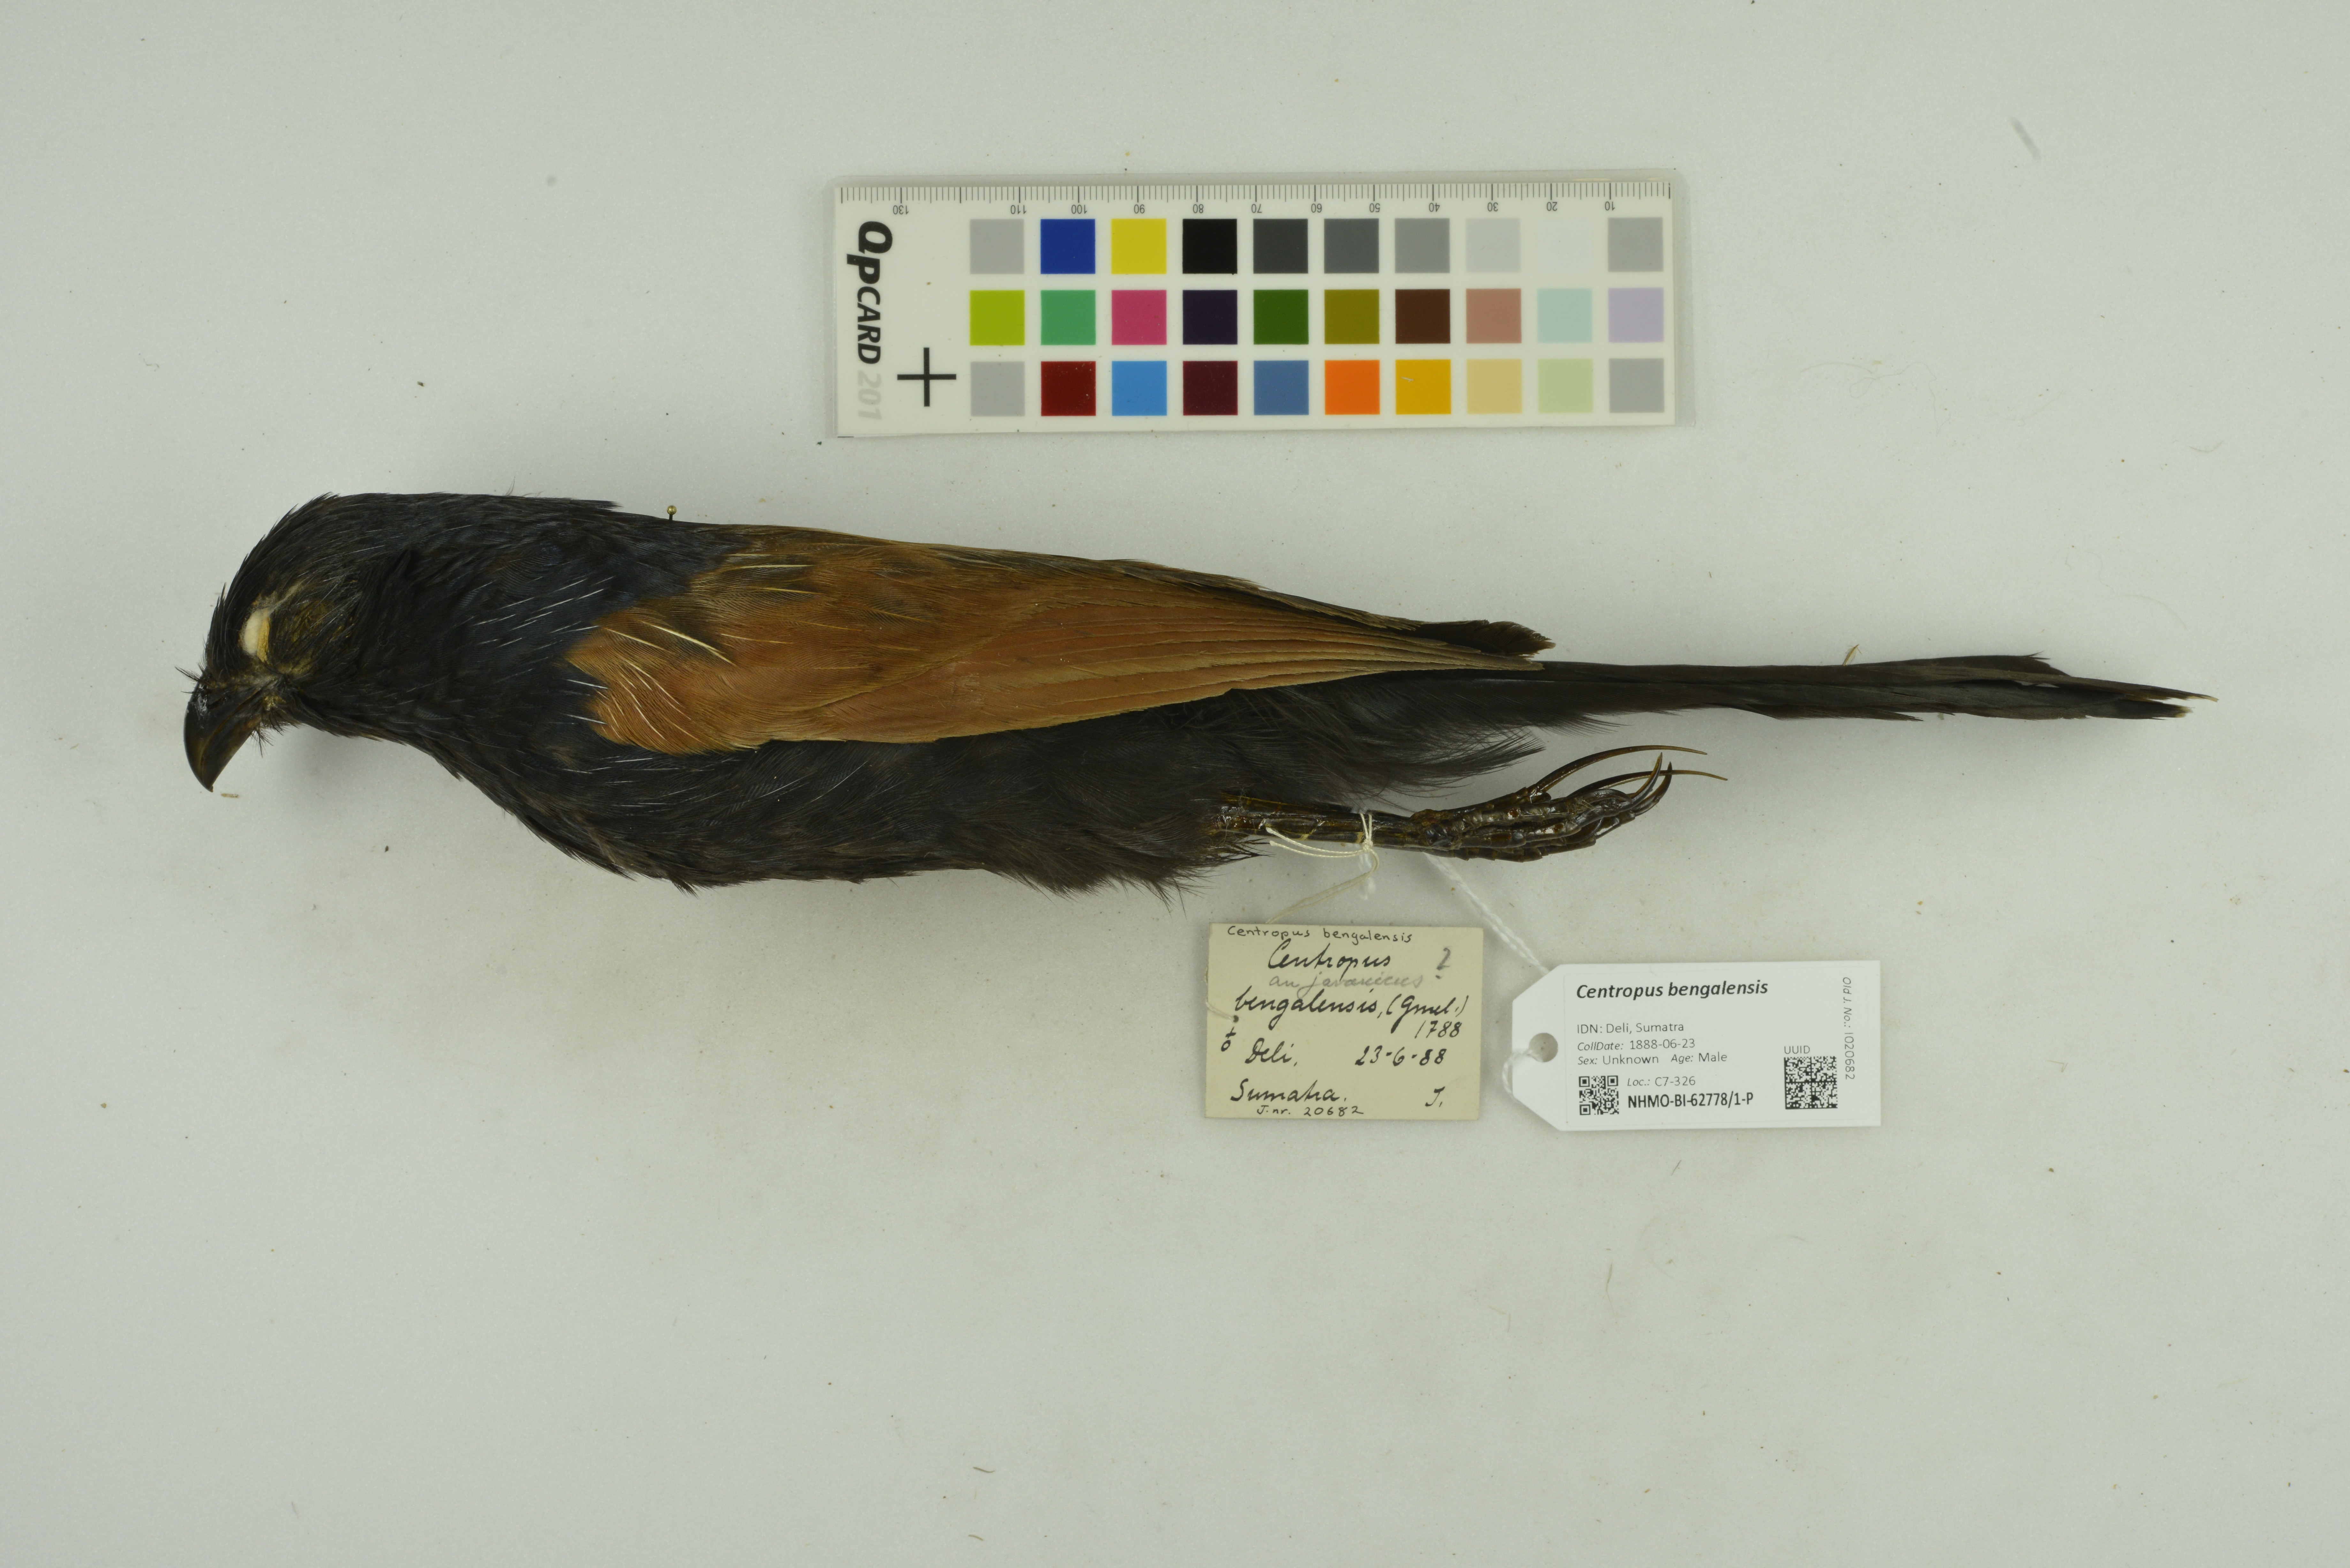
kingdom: Animalia
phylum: Chordata
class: Aves
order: Cuculiformes
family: Cuculidae
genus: Centropus
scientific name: Centropus bengalensis
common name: Lesser coucal
